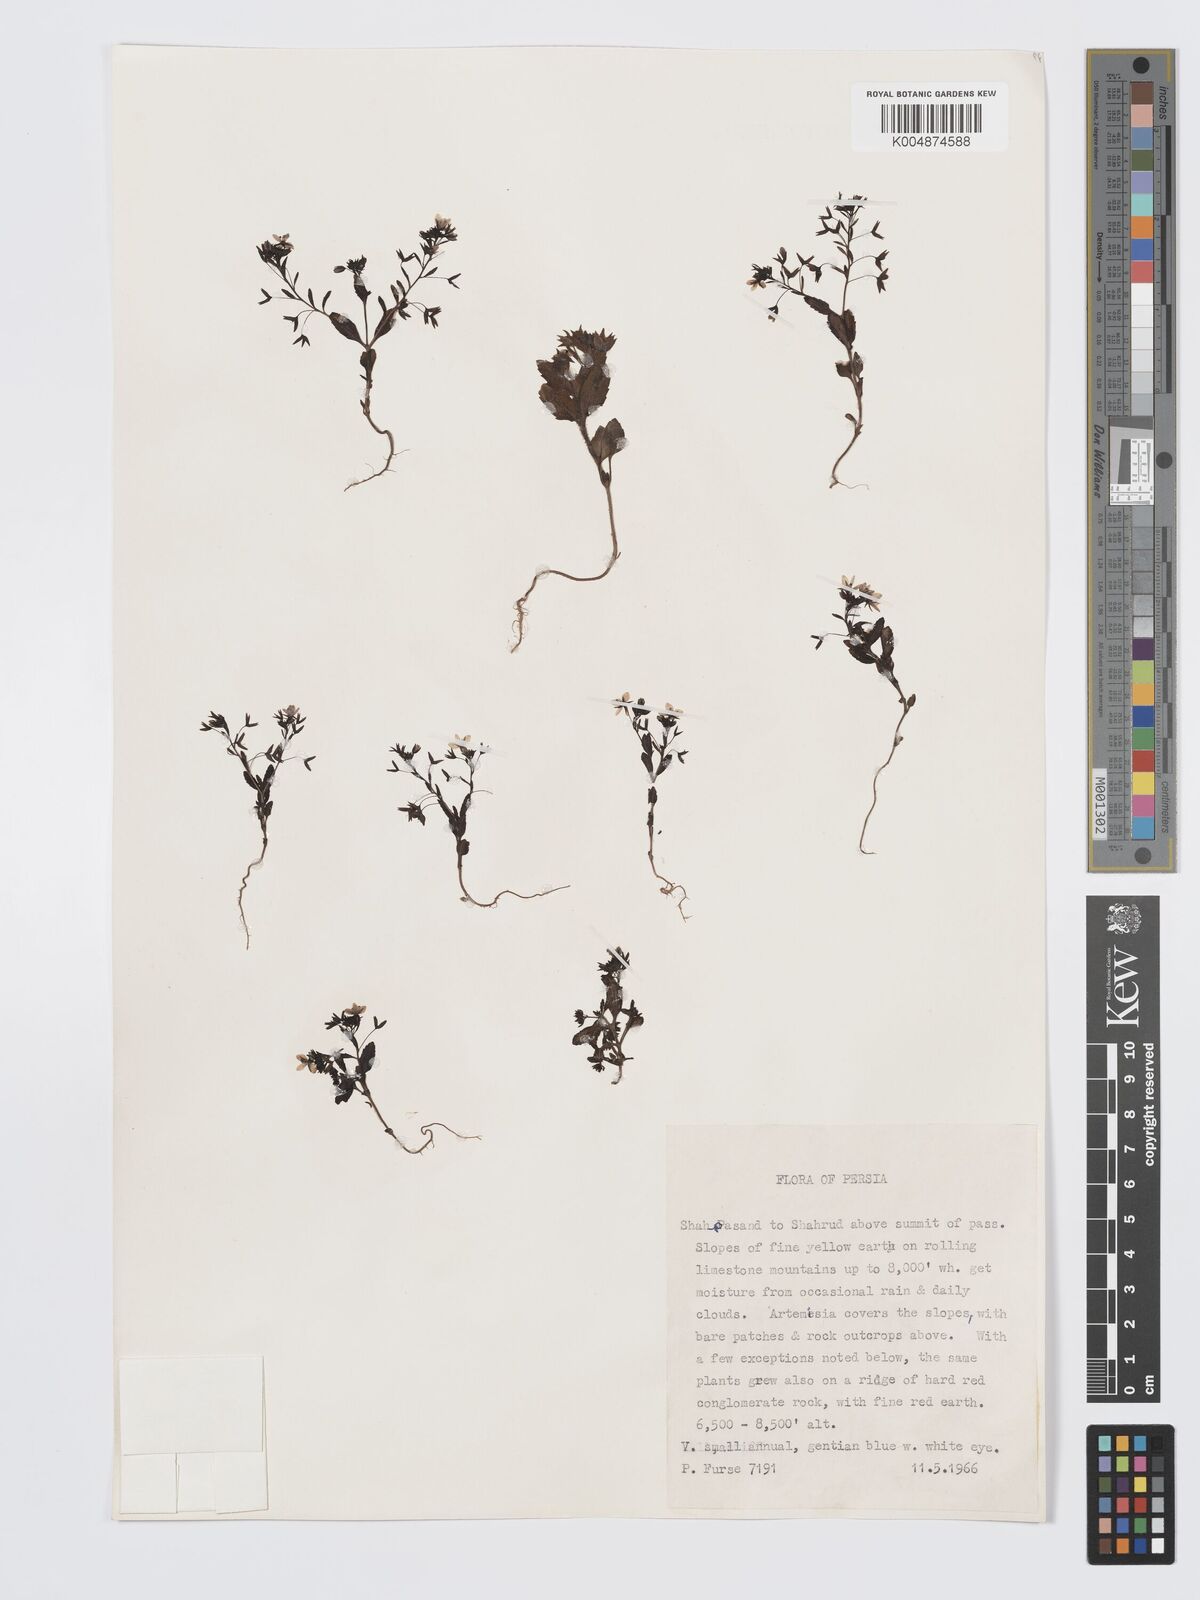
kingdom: Plantae
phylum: Tracheophyta
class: Magnoliopsida
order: Lamiales
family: Plantaginaceae
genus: Veronica
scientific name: Veronica
